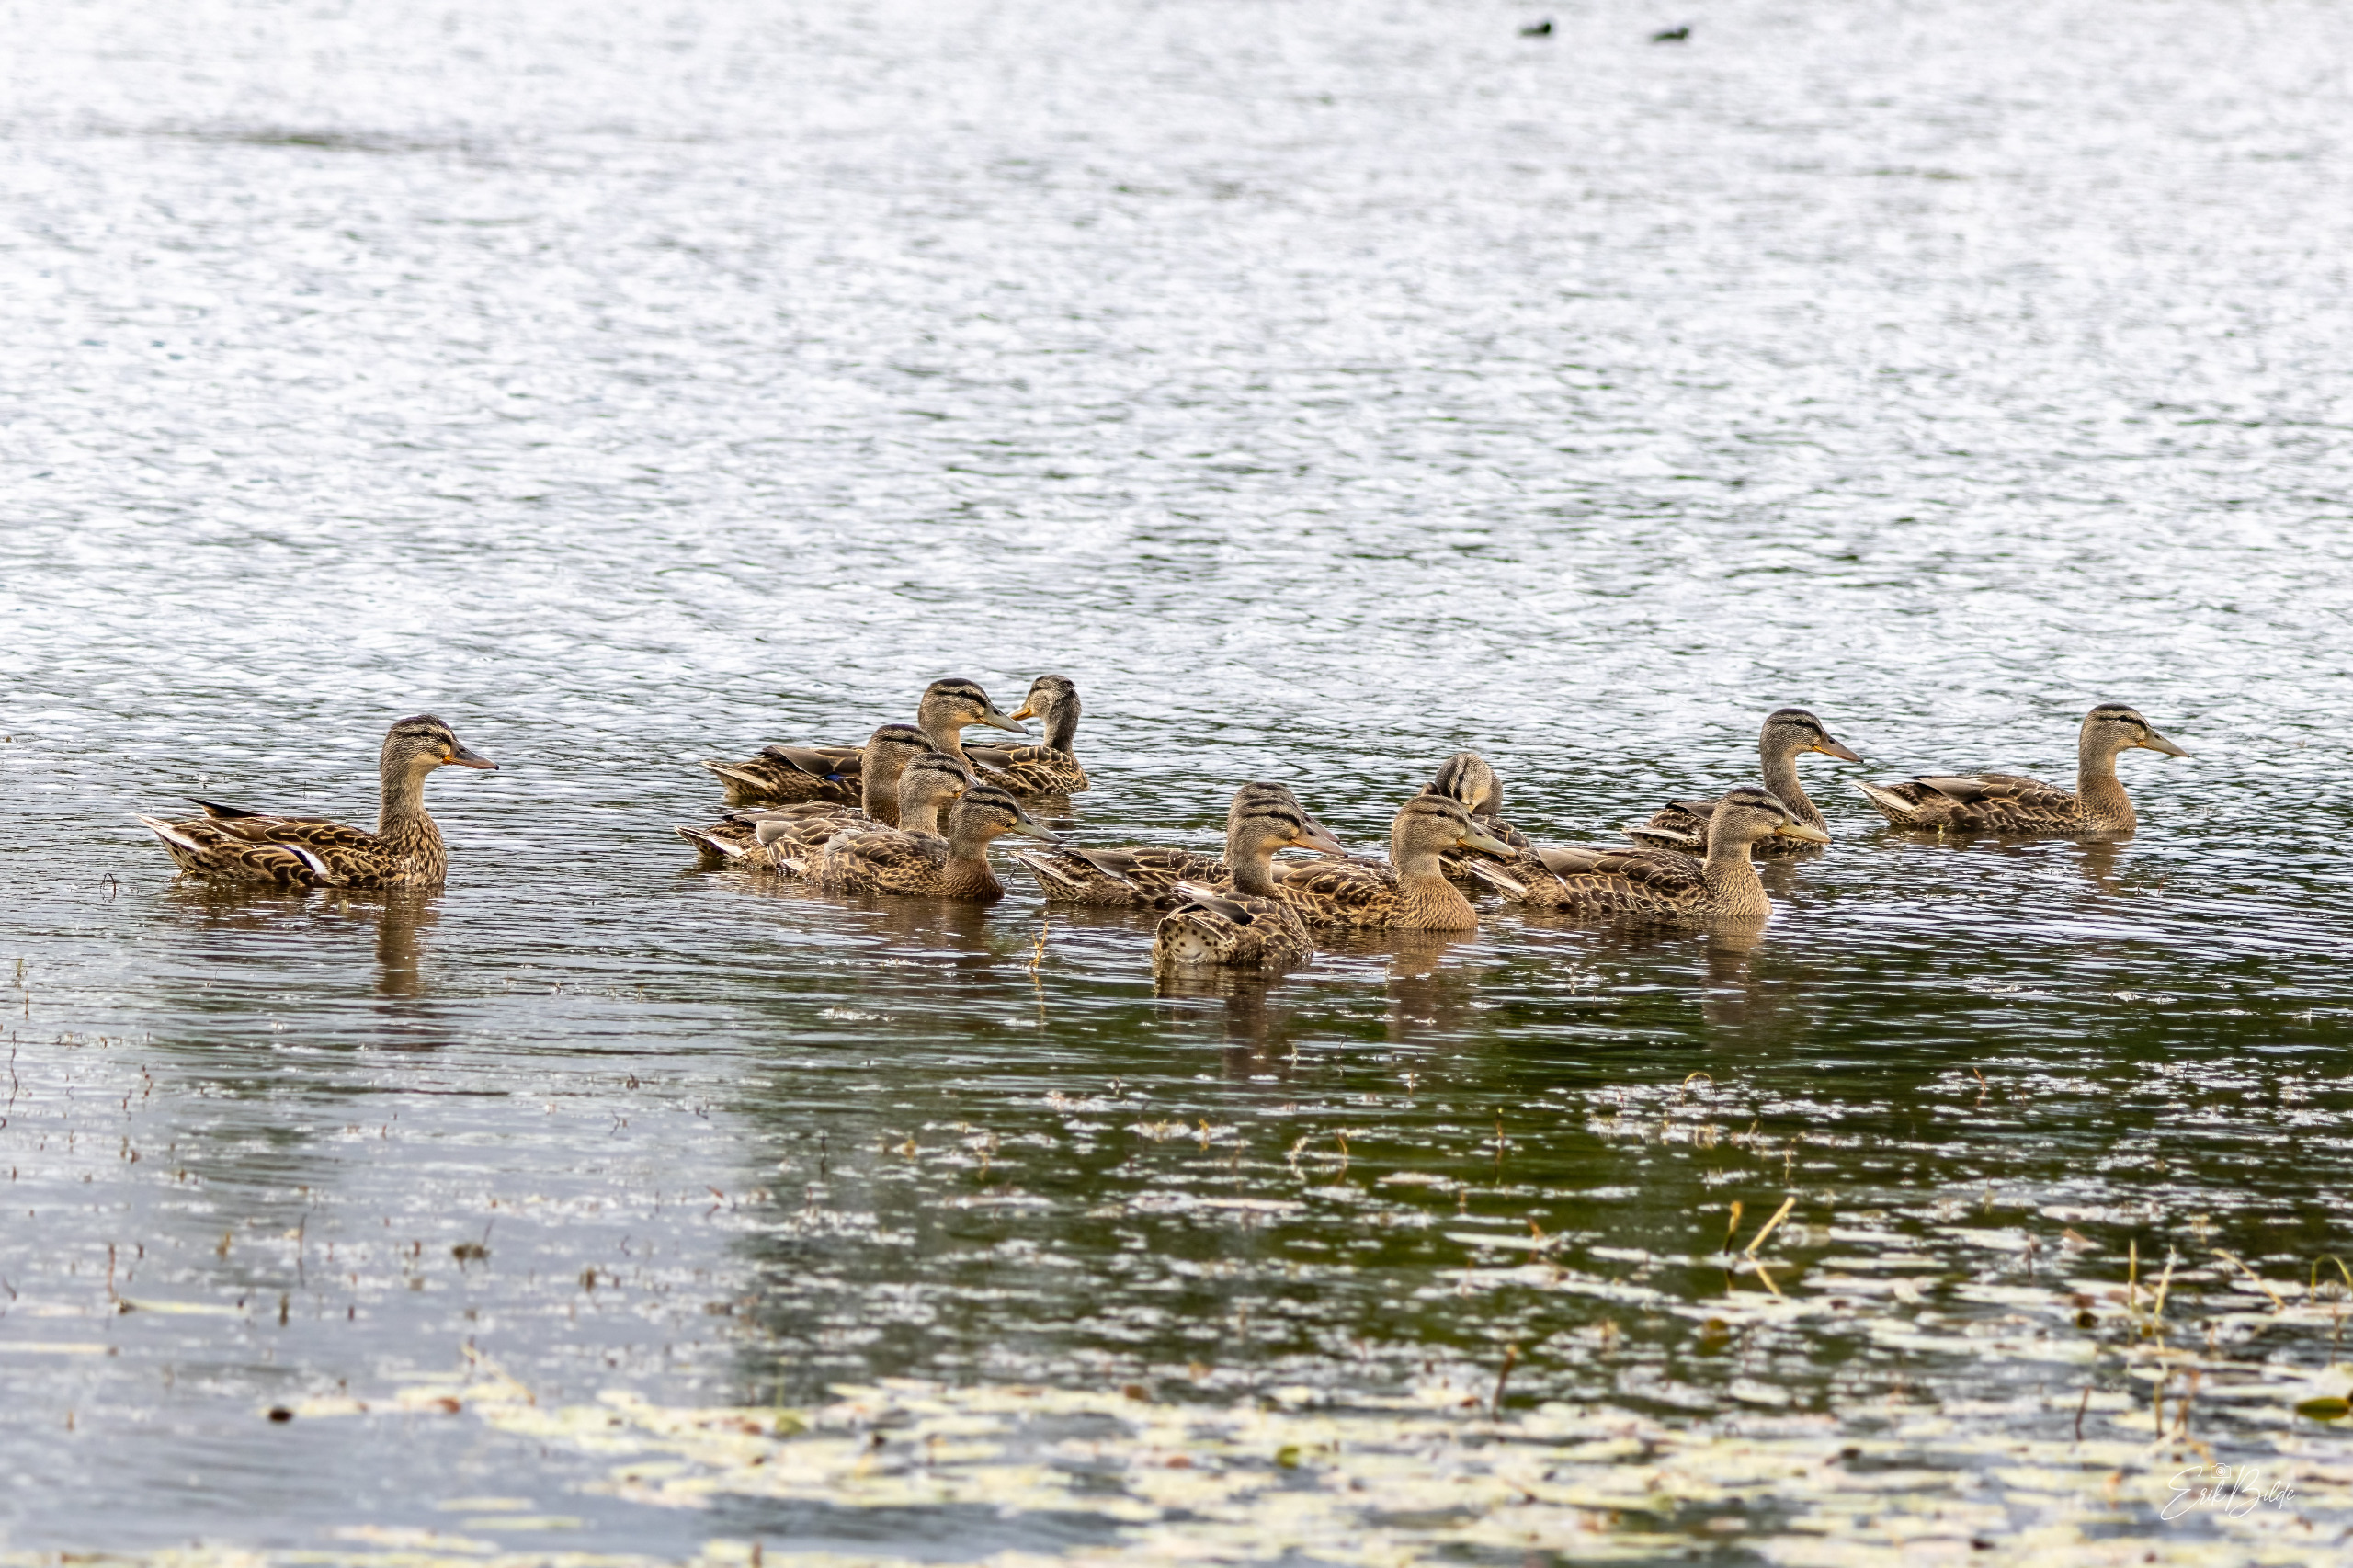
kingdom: Animalia
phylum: Chordata
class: Aves
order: Anseriformes
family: Anatidae
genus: Anas
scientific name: Anas platyrhynchos
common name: Gråand
